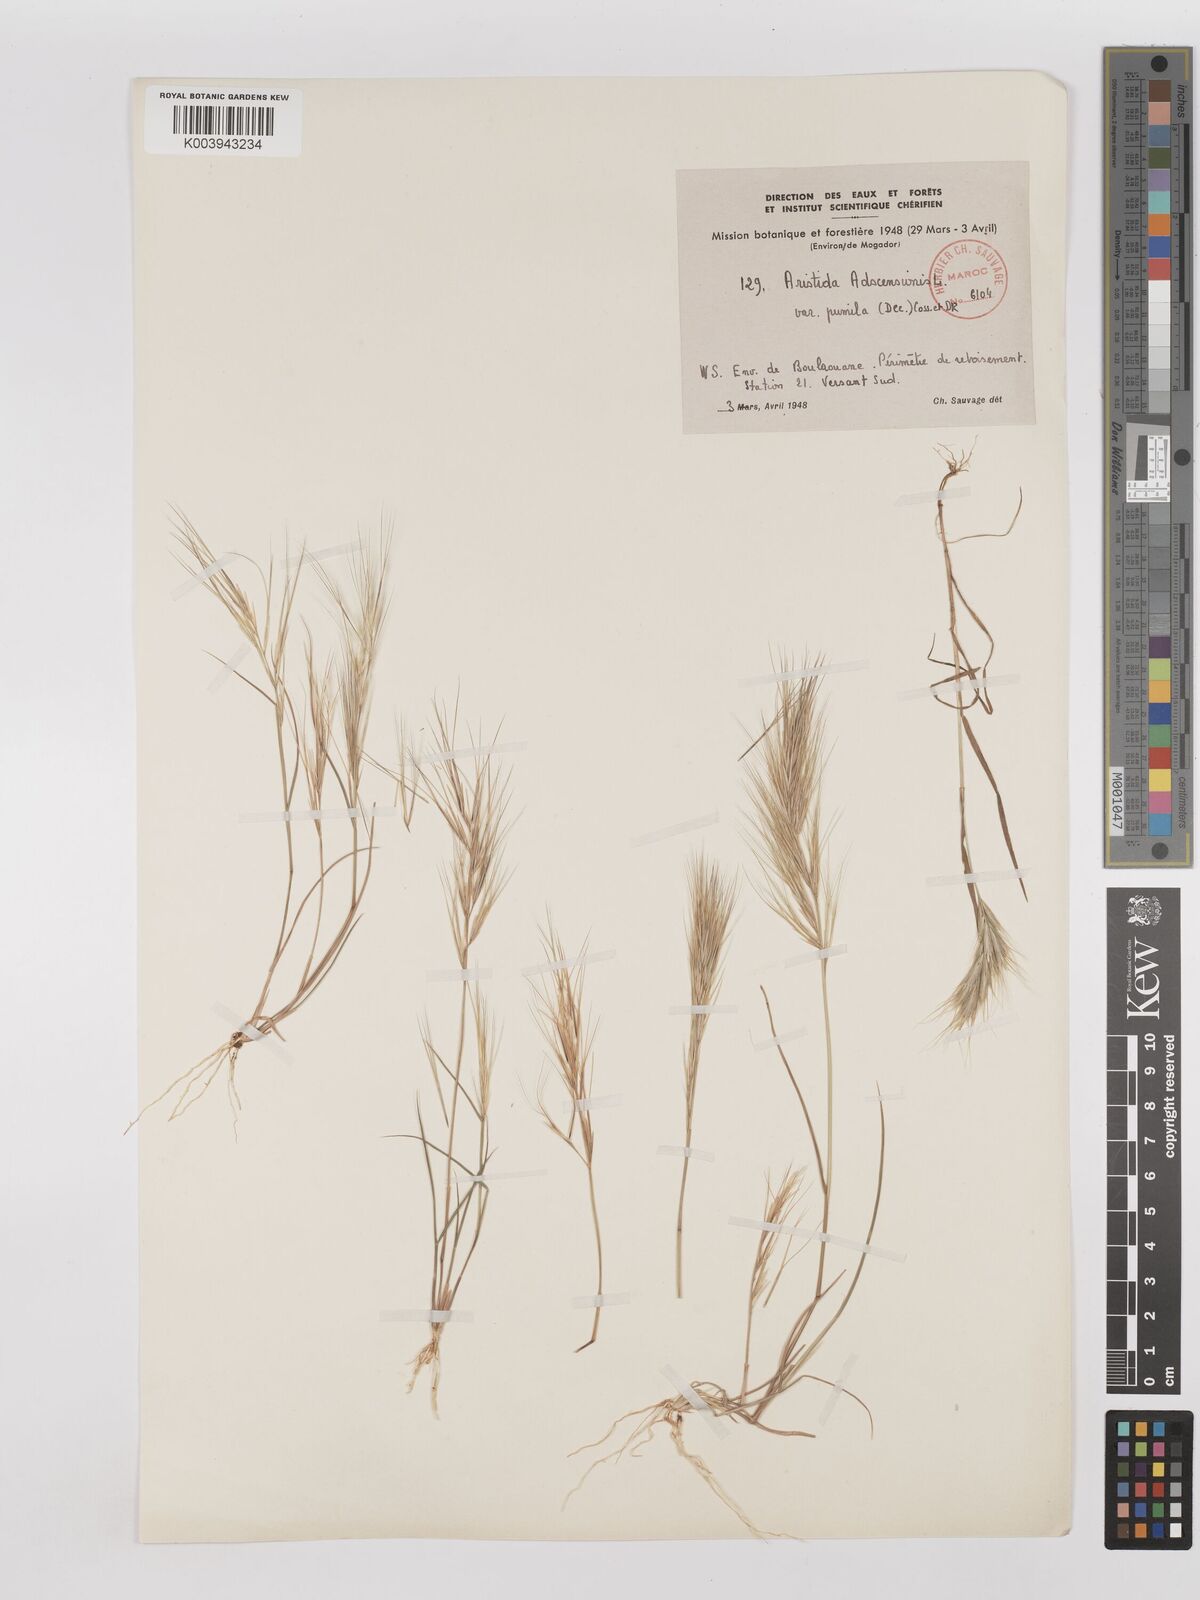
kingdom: Plantae
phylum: Tracheophyta
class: Liliopsida
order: Poales
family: Poaceae
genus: Aristida
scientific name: Aristida adscensionis
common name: Sixweeks threeawn
